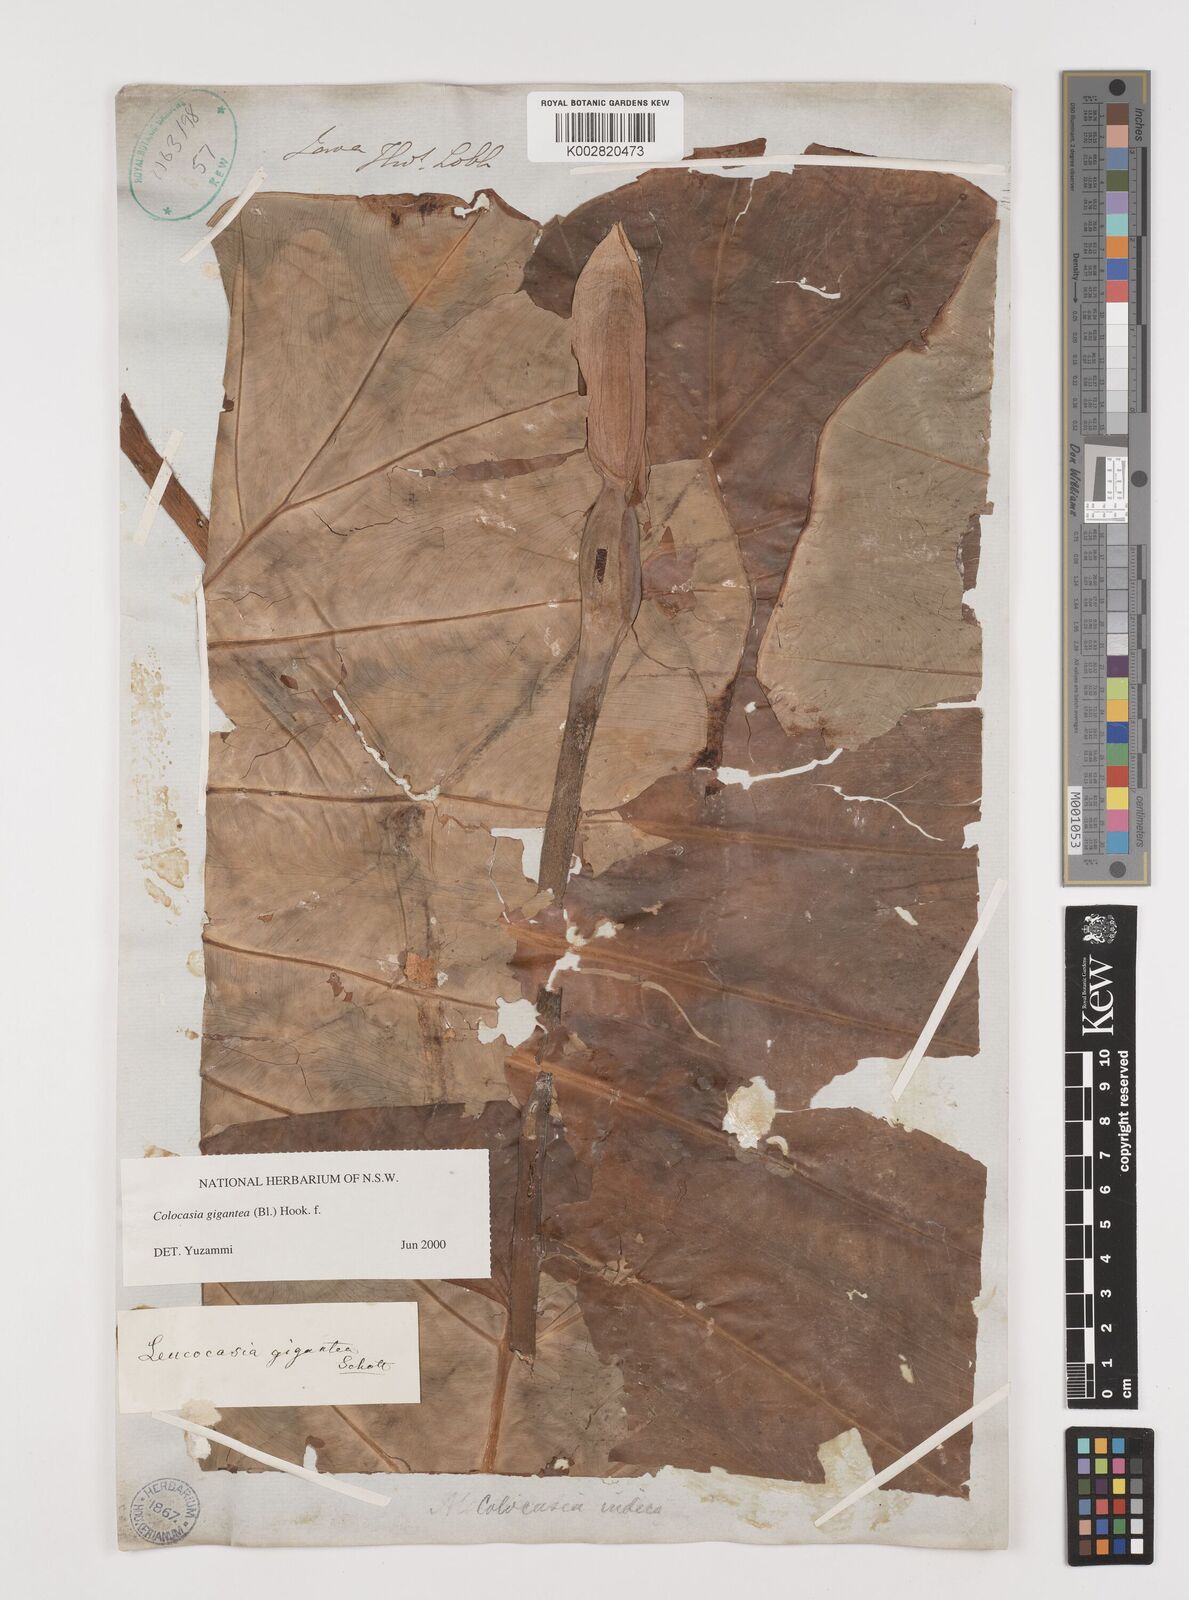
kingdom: Plantae
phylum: Tracheophyta
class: Liliopsida
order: Alismatales
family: Araceae
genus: Leucocasia
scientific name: Leucocasia gigantea
